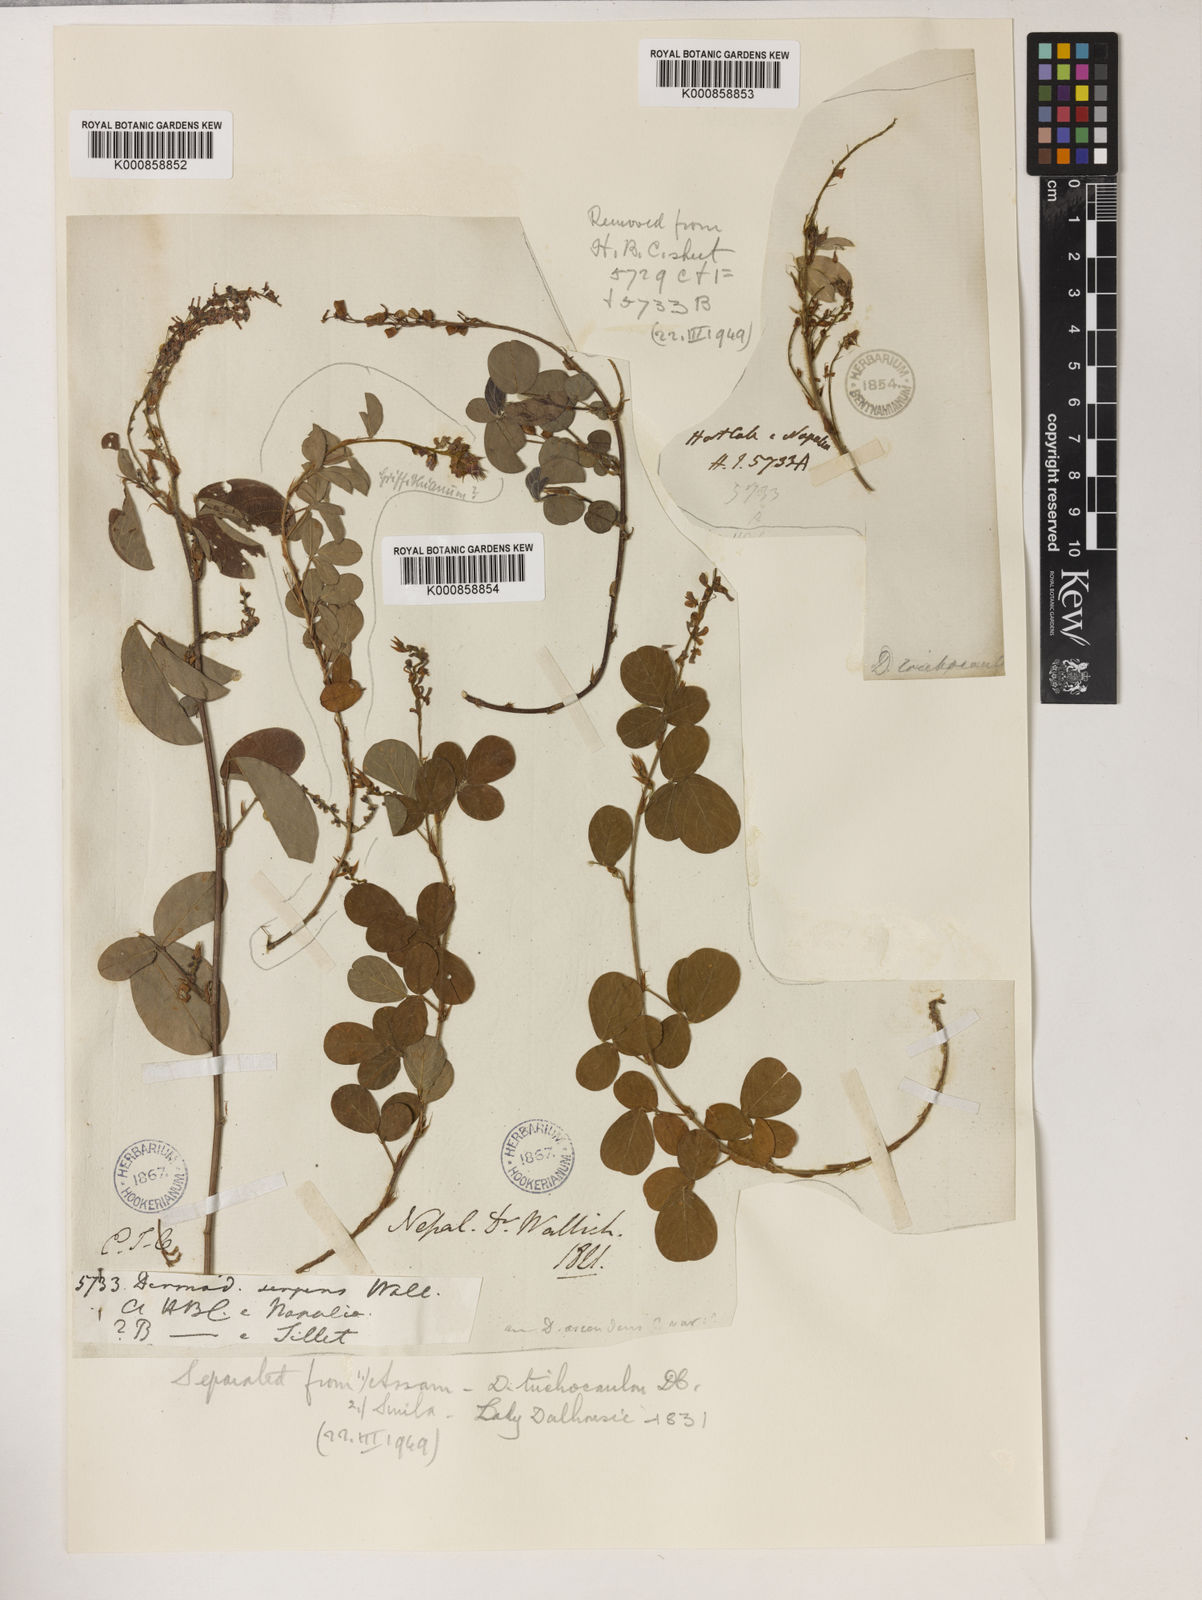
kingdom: Plantae
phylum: Tracheophyta
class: Magnoliopsida
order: Fabales
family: Fabaceae
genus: Grona
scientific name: Grona heterocarpos
